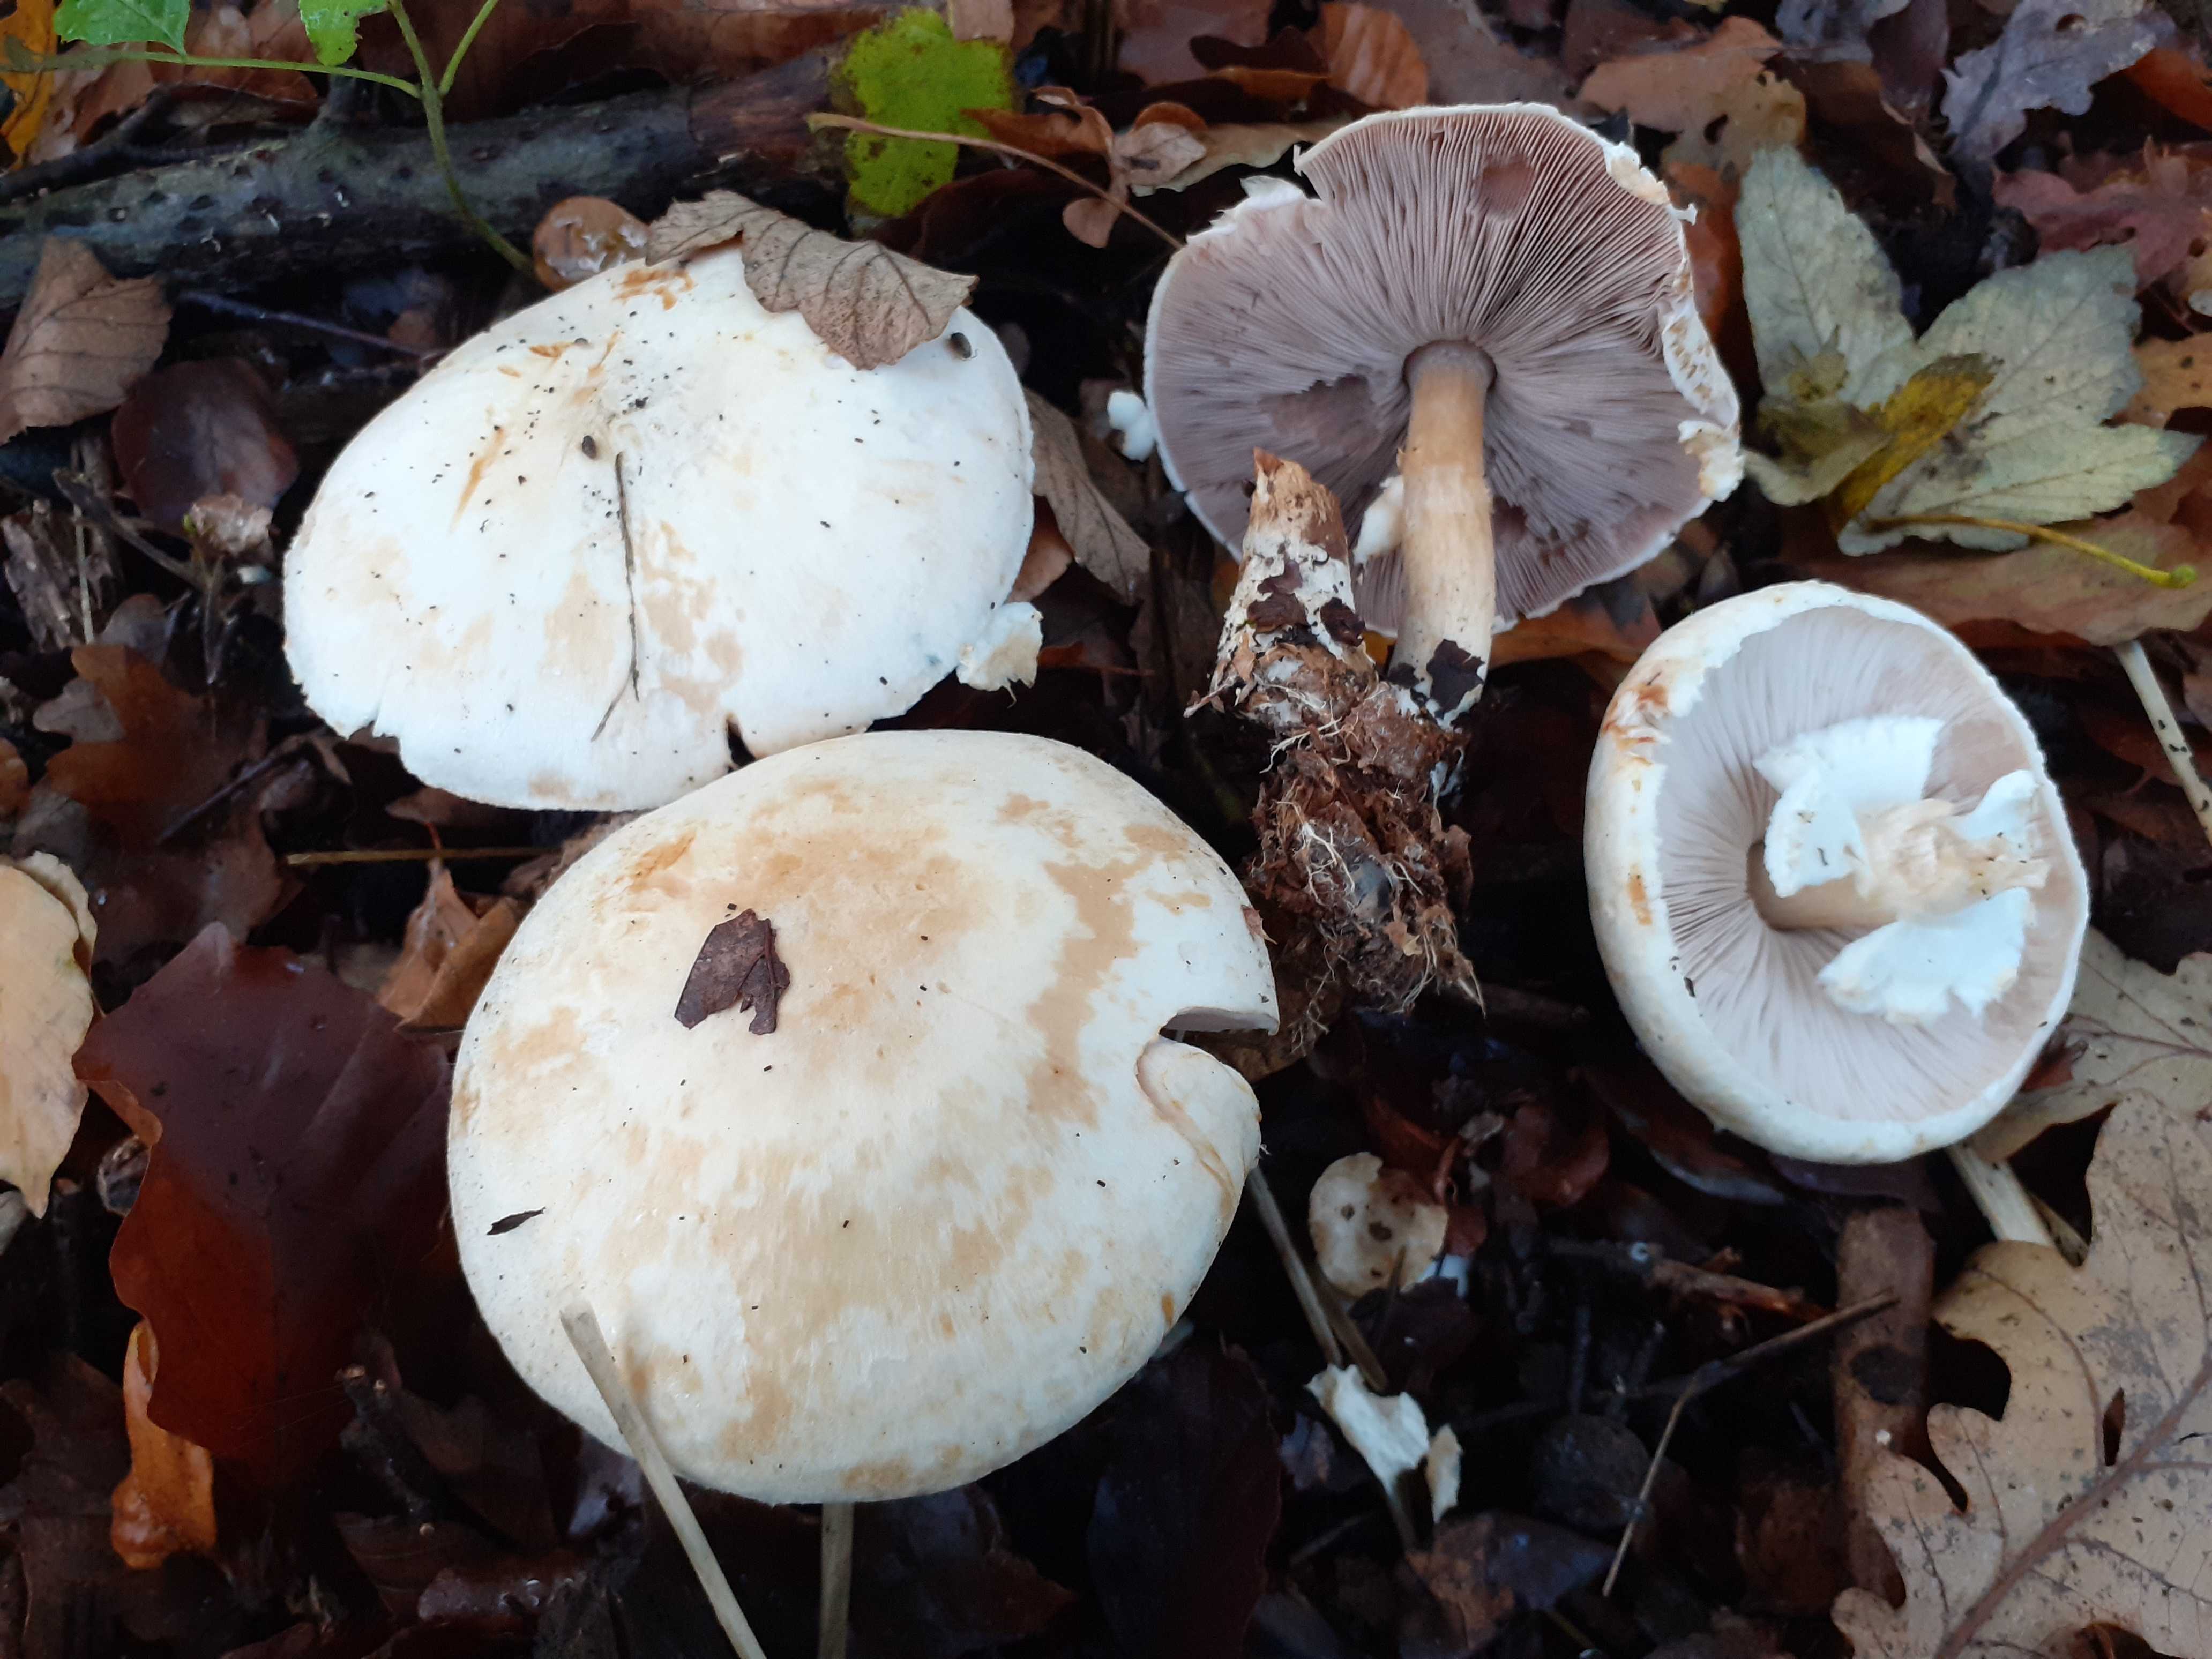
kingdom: Fungi
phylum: Basidiomycota
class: Agaricomycetes
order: Agaricales
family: Agaricaceae
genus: Agaricus
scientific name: Agaricus sylvicola
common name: gulhvid champignon
